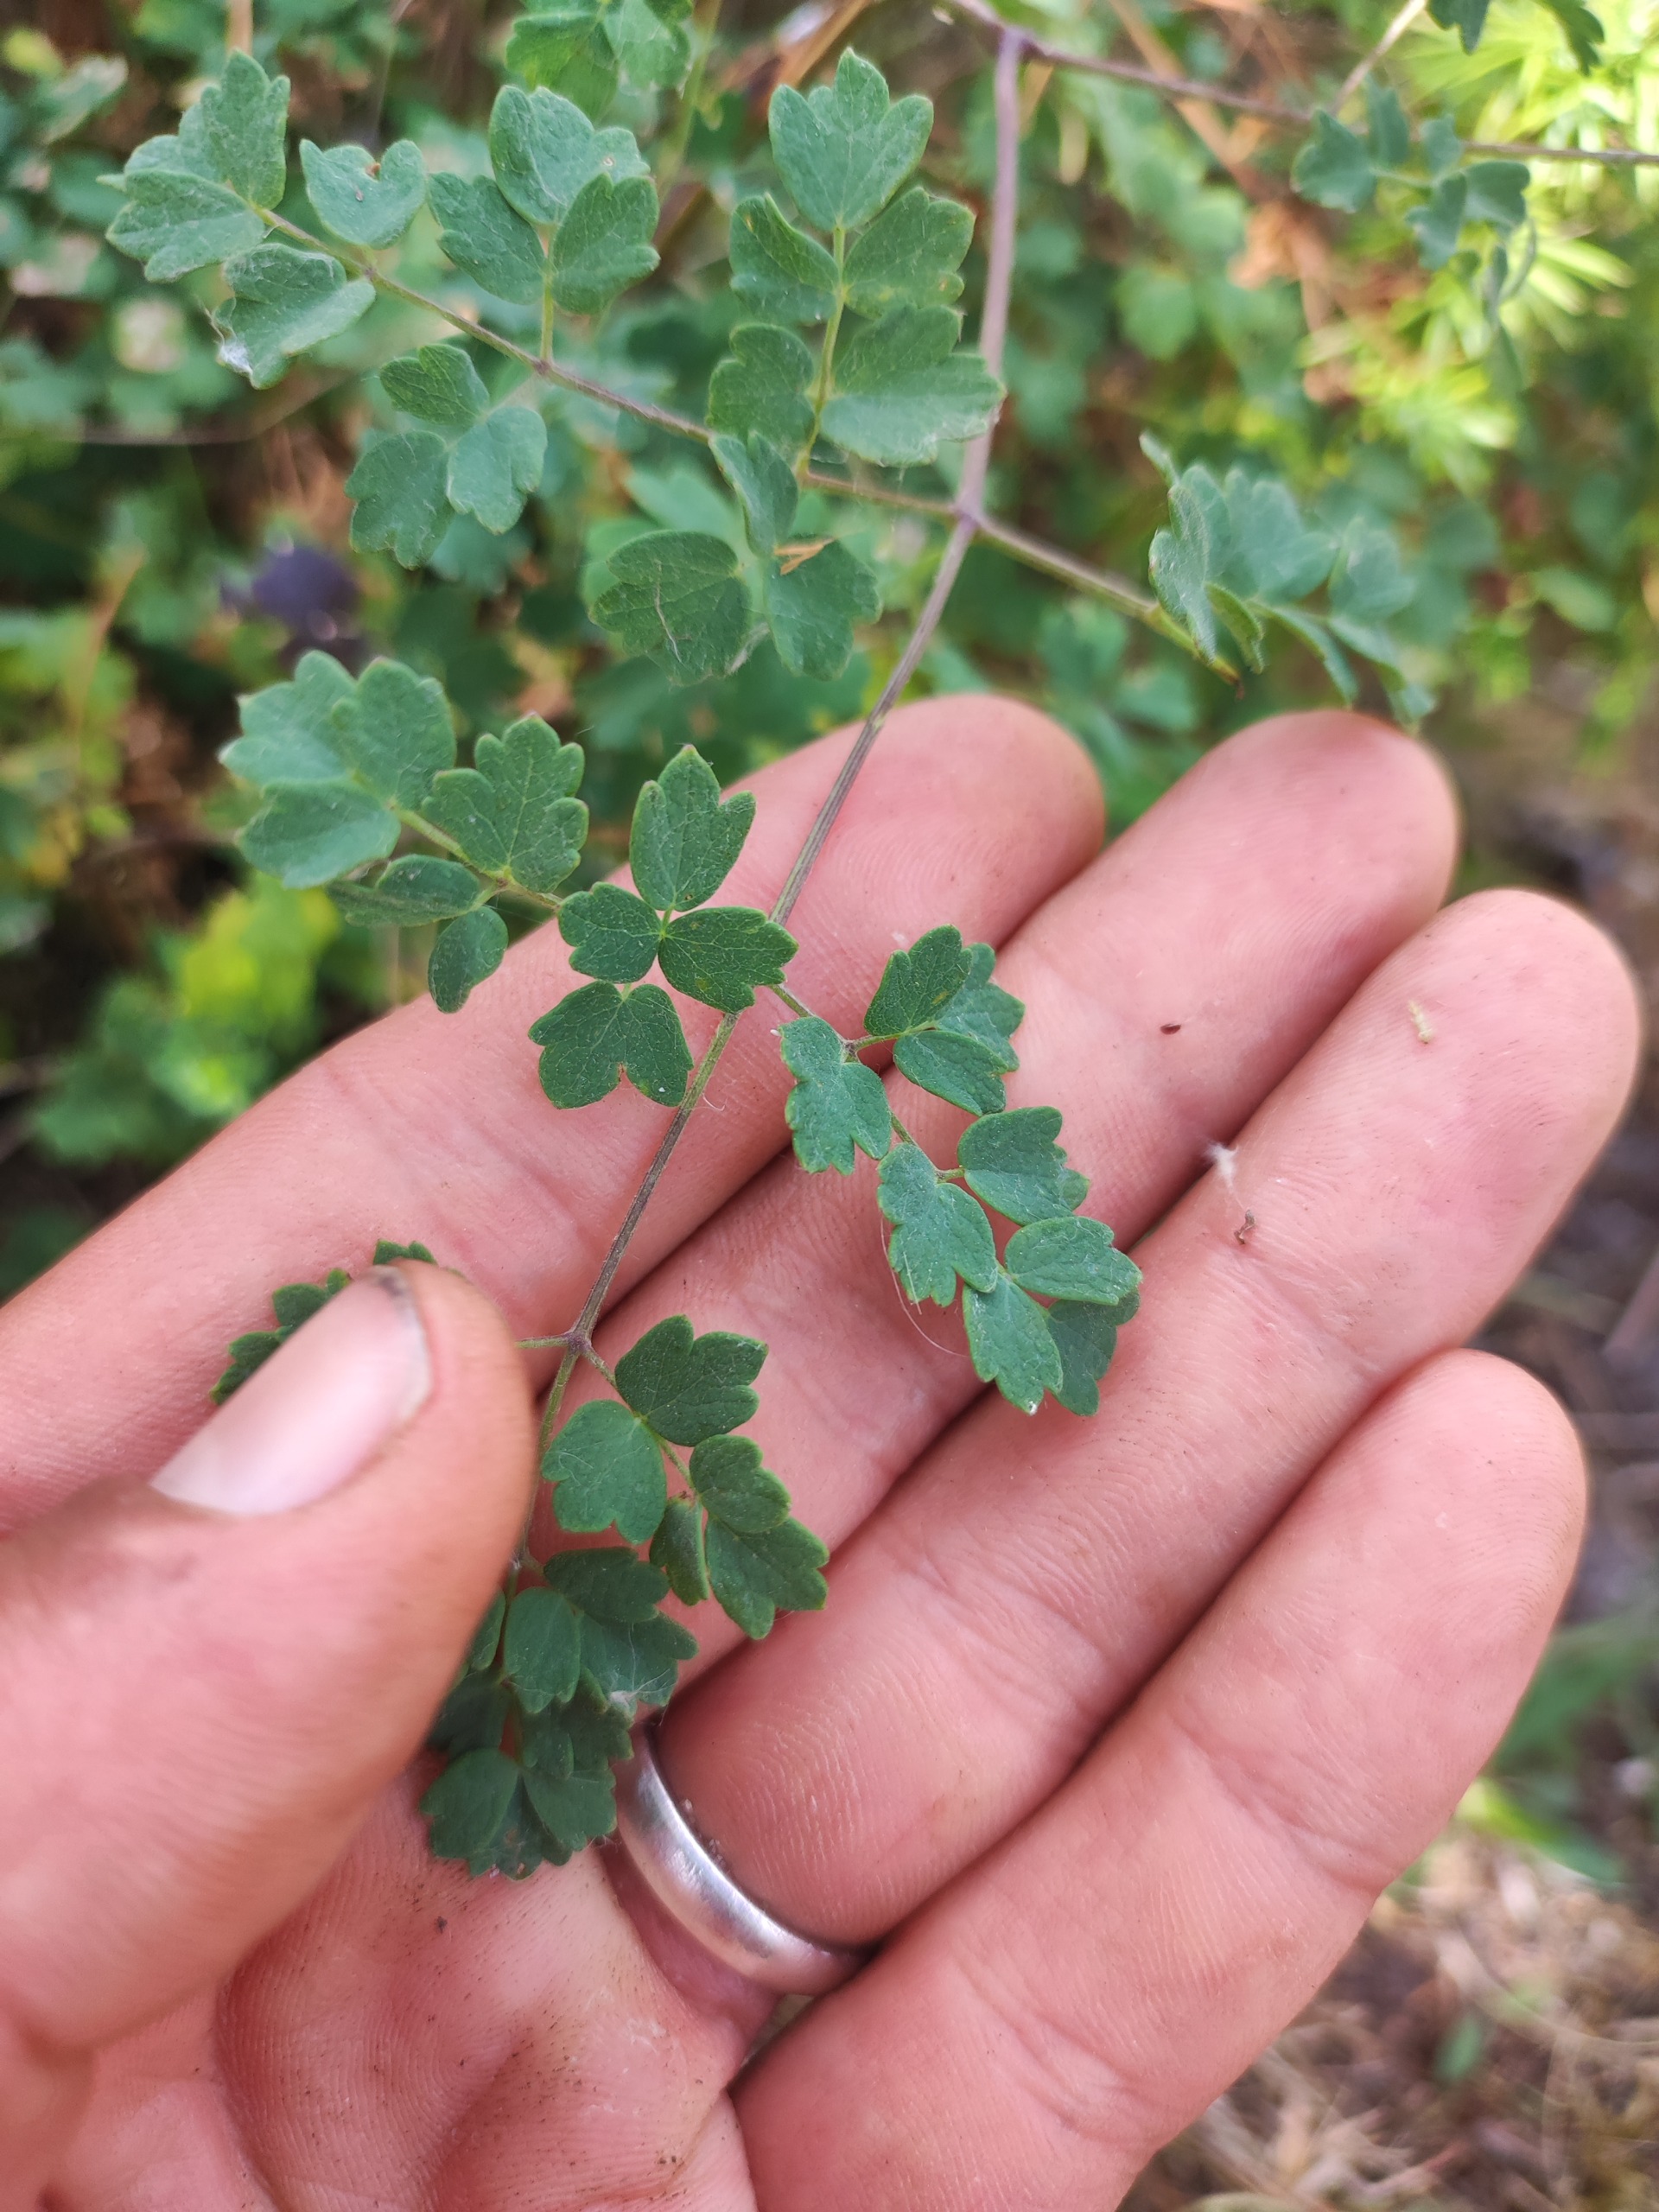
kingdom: Plantae
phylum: Tracheophyta
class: Magnoliopsida
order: Ranunculales
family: Ranunculaceae
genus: Thalictrum
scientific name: Thalictrum minus
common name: Liden frøstjerne
